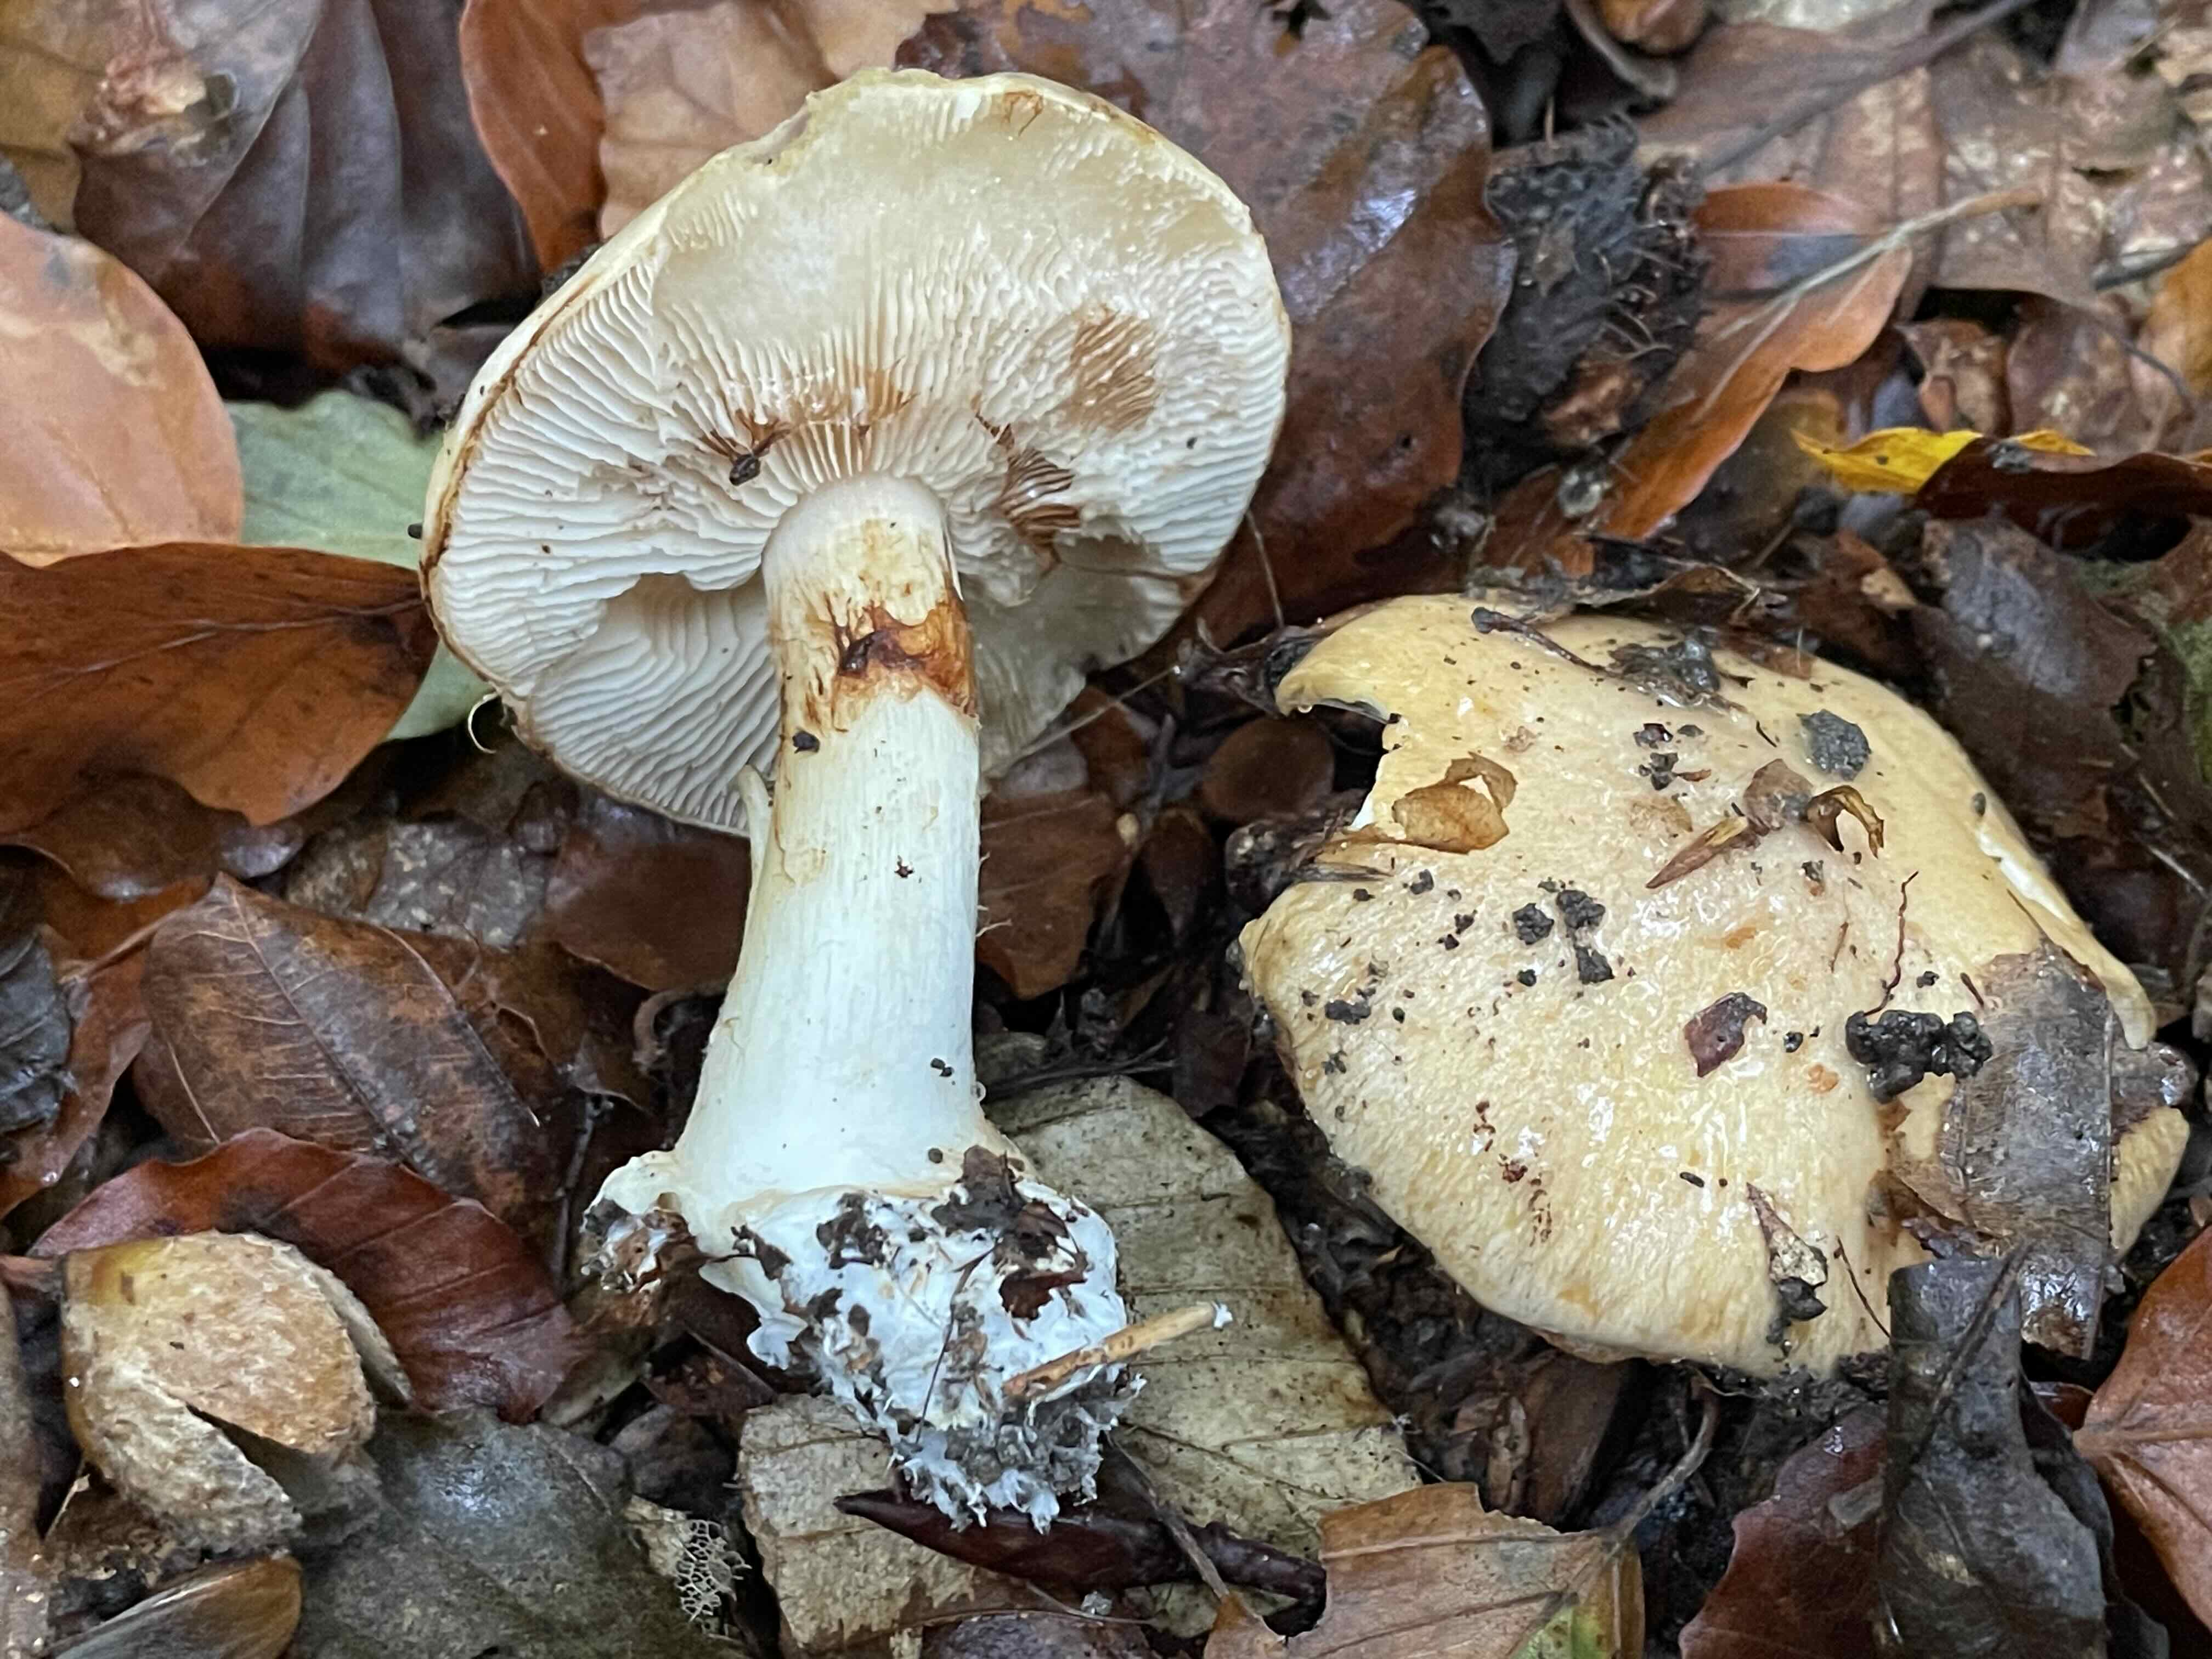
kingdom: Fungi
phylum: Basidiomycota
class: Agaricomycetes
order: Agaricales
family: Cortinariaceae
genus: Thaxterogaster
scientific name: Thaxterogaster talus
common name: knogle-slørhat
